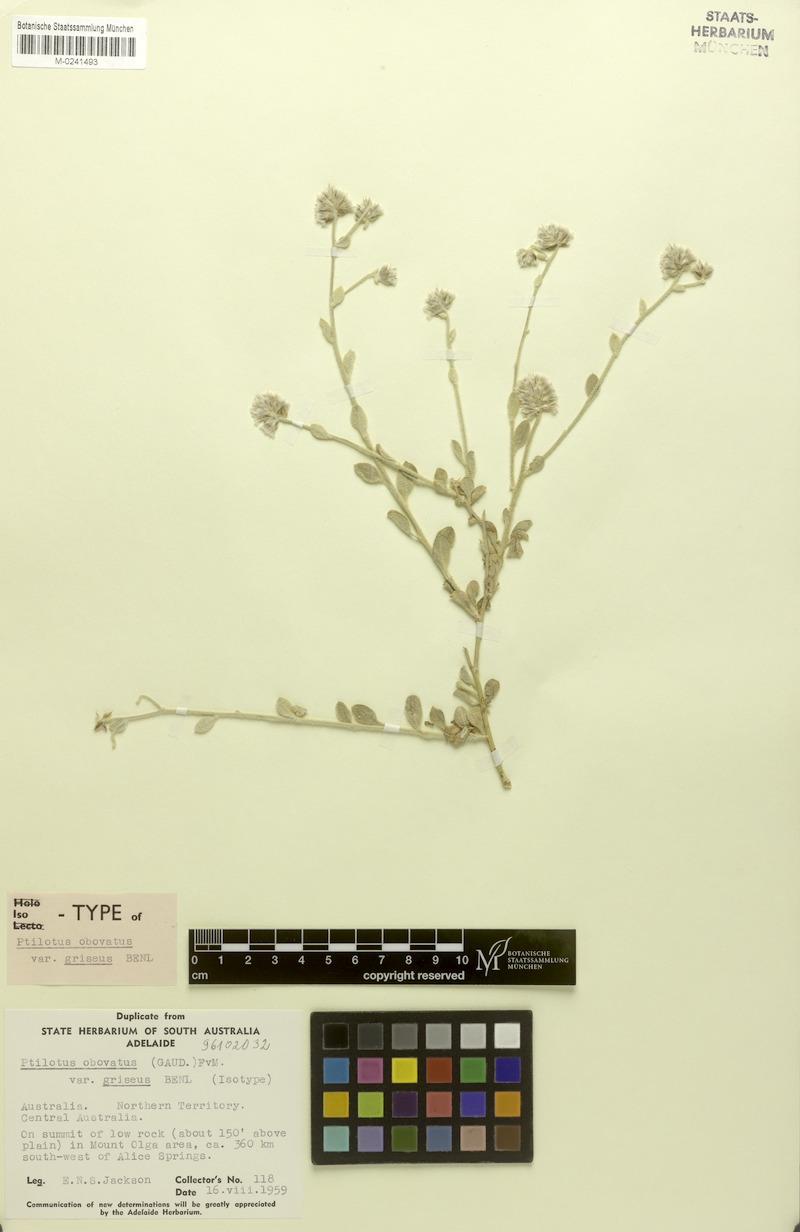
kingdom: Plantae
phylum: Tracheophyta
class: Magnoliopsida
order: Caryophyllales
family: Amaranthaceae
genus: Ptilotus
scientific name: Ptilotus incanus
